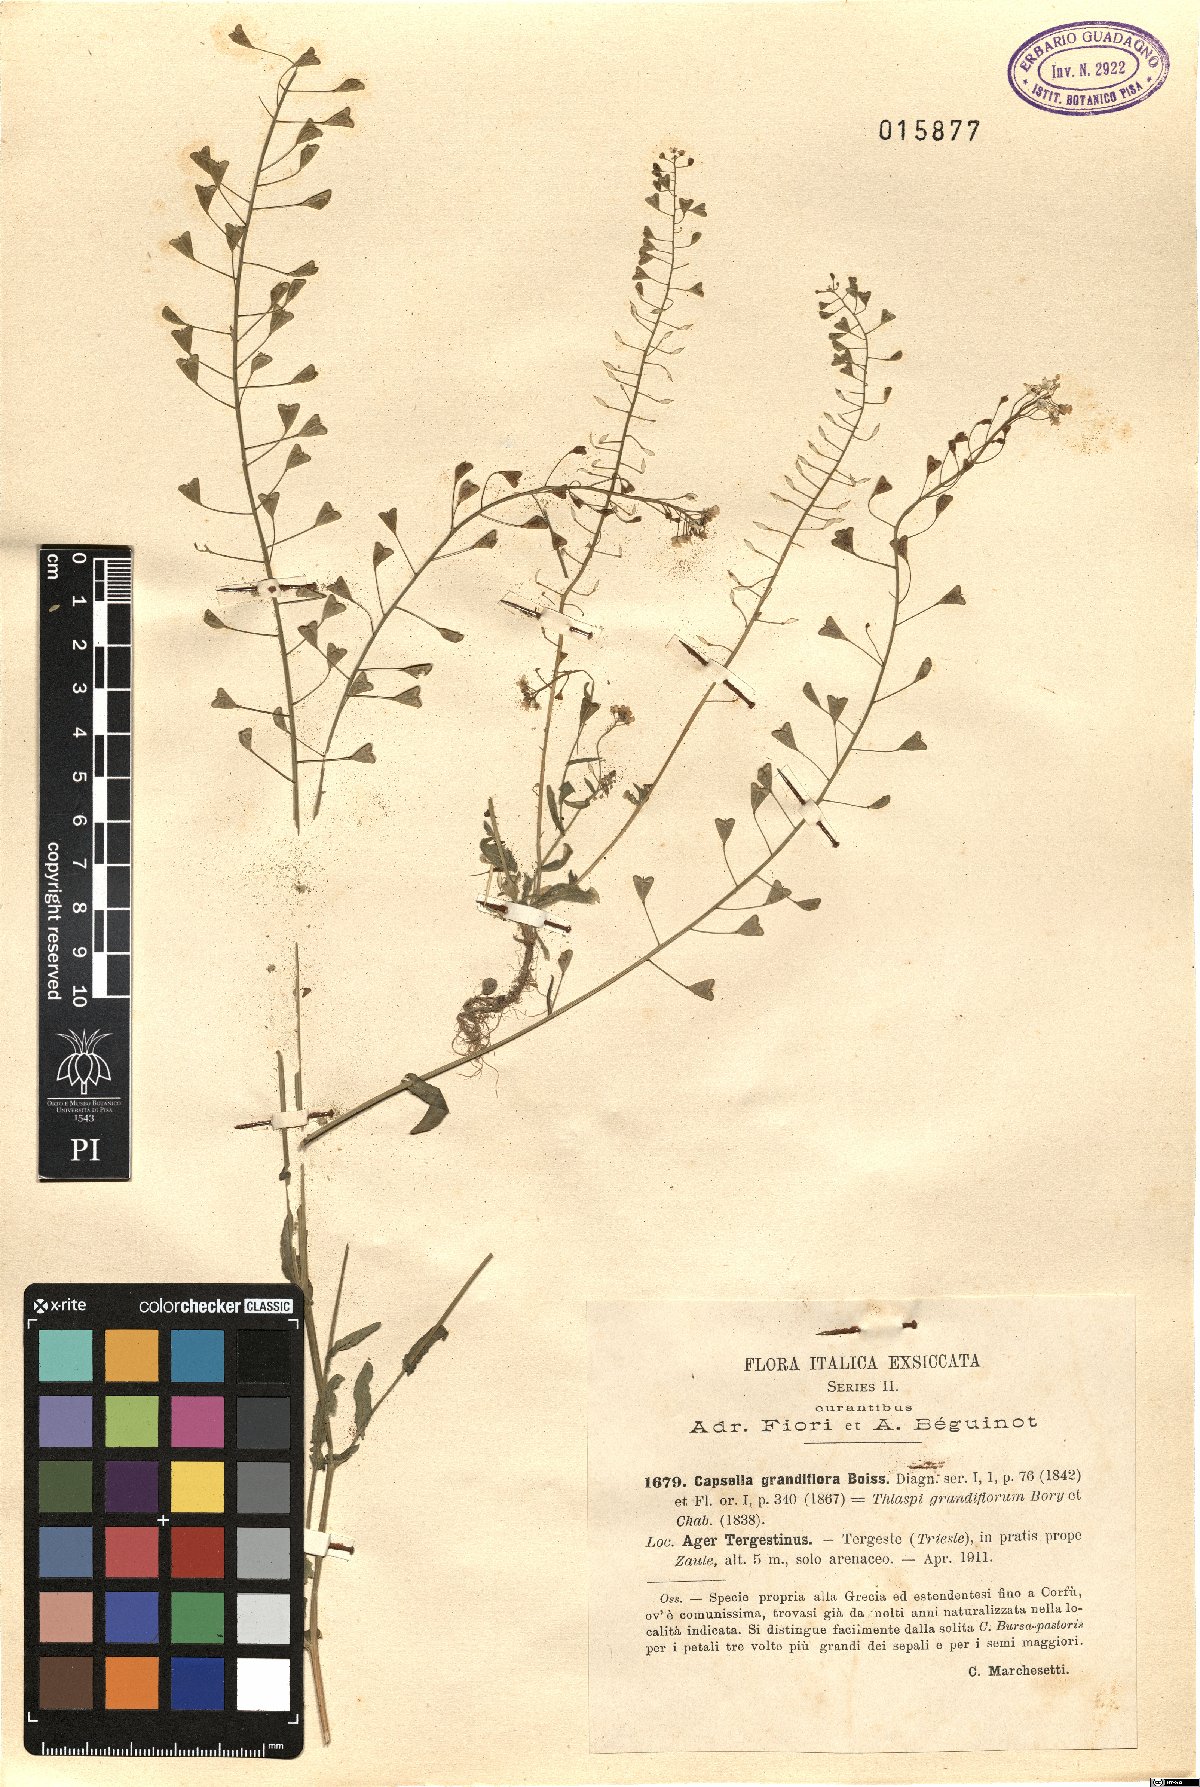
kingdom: Plantae
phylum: Tracheophyta
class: Magnoliopsida
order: Brassicales
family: Brassicaceae
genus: Capsella
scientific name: Capsella grandiflora
